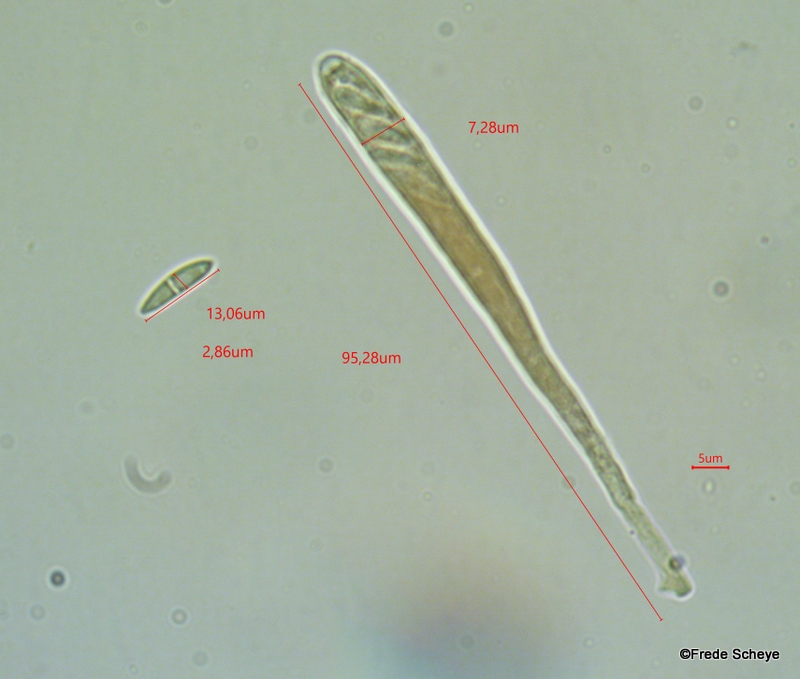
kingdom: Fungi
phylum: Ascomycota
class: Leotiomycetes
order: Helotiales
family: Helotiaceae
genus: Bispora
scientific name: Bispora pallescens
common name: måtte-snitskive
